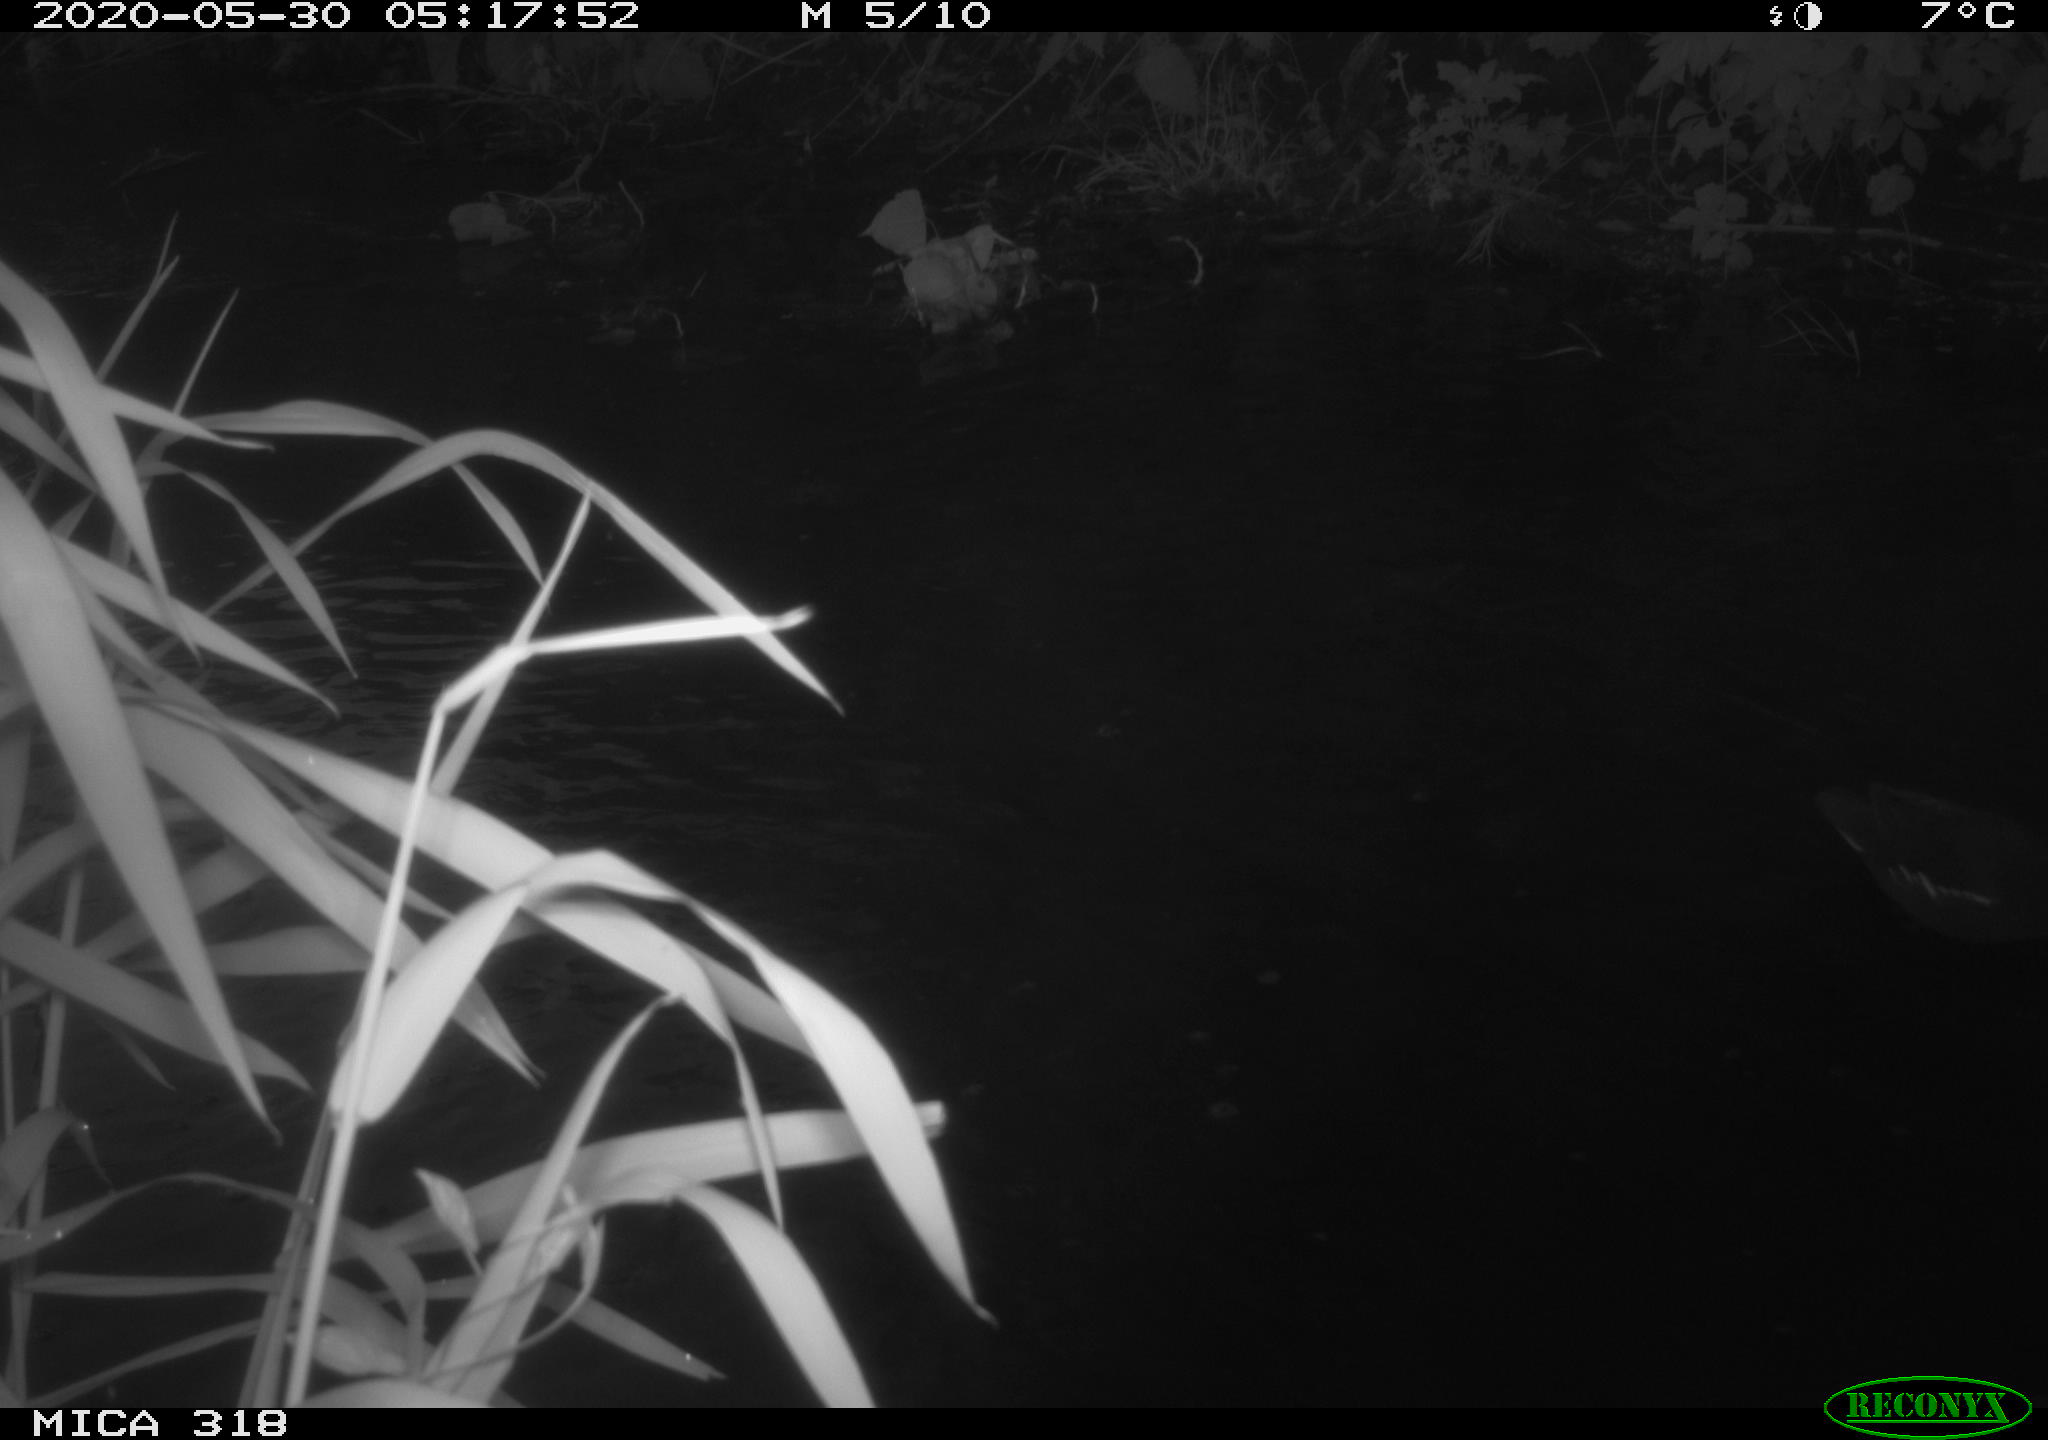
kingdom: Animalia
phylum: Chordata
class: Aves
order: Gruiformes
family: Rallidae
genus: Gallinula
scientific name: Gallinula chloropus
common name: Common moorhen
